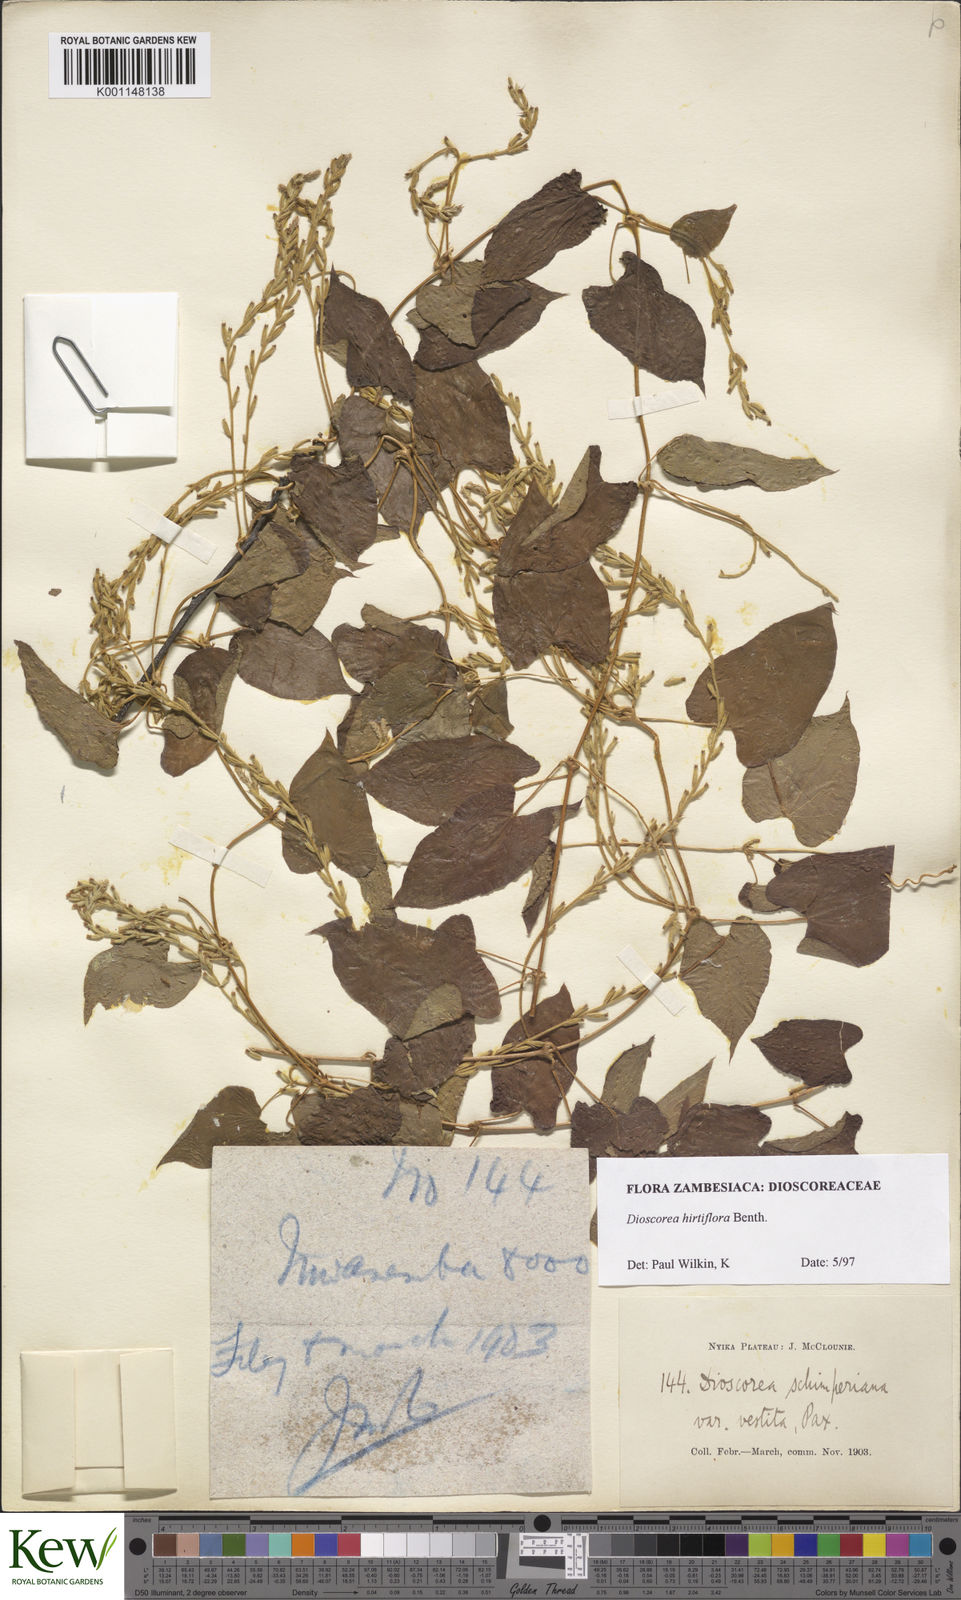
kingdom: Plantae
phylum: Tracheophyta
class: Liliopsida
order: Dioscoreales
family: Dioscoreaceae
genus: Dioscorea
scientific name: Dioscorea hirtiflora
